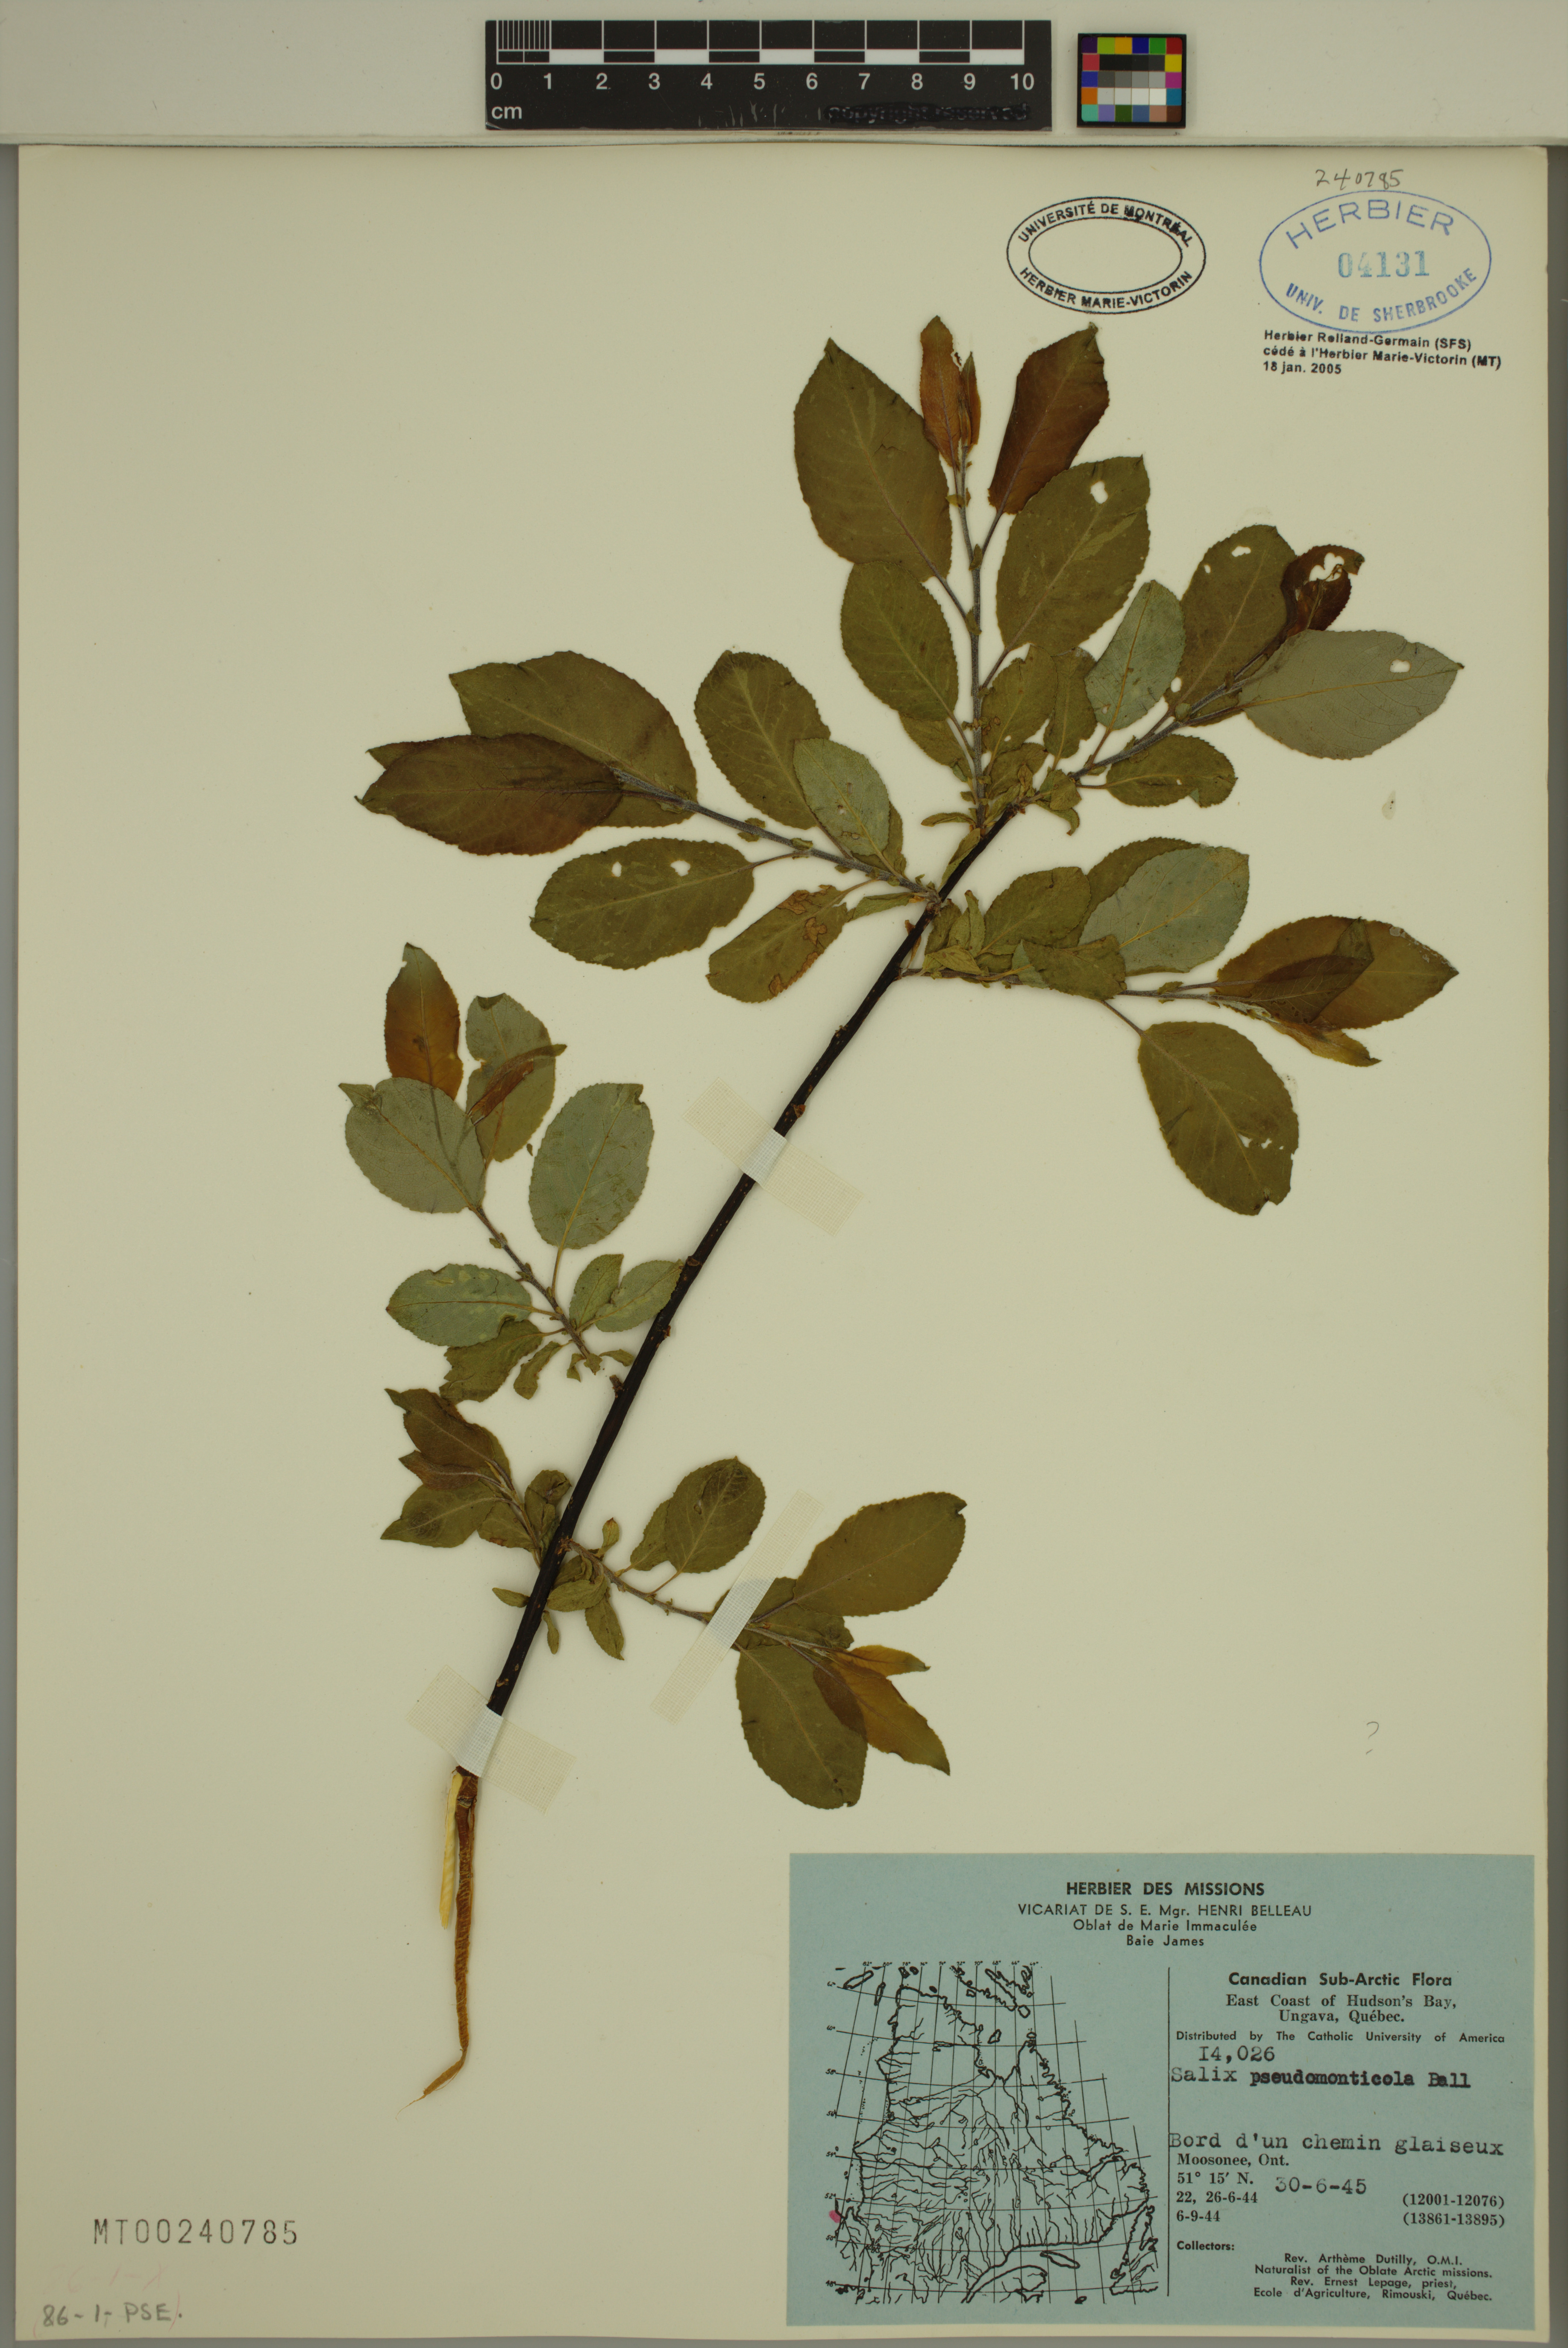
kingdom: Plantae
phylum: Tracheophyta
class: Magnoliopsida
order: Malpighiales
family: Salicaceae
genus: Salix
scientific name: Salix pseudomonticola
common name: Cherry-leaved willow
